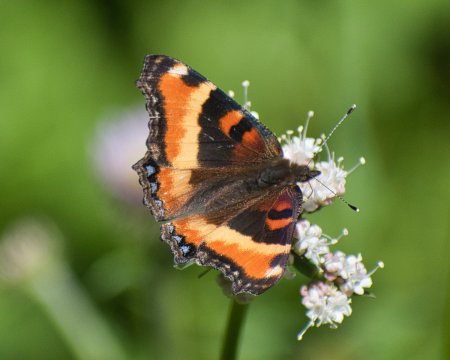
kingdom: Animalia
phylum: Arthropoda
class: Insecta
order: Lepidoptera
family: Nymphalidae
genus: Aglais
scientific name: Aglais milberti
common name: Milbert's Tortoiseshell
